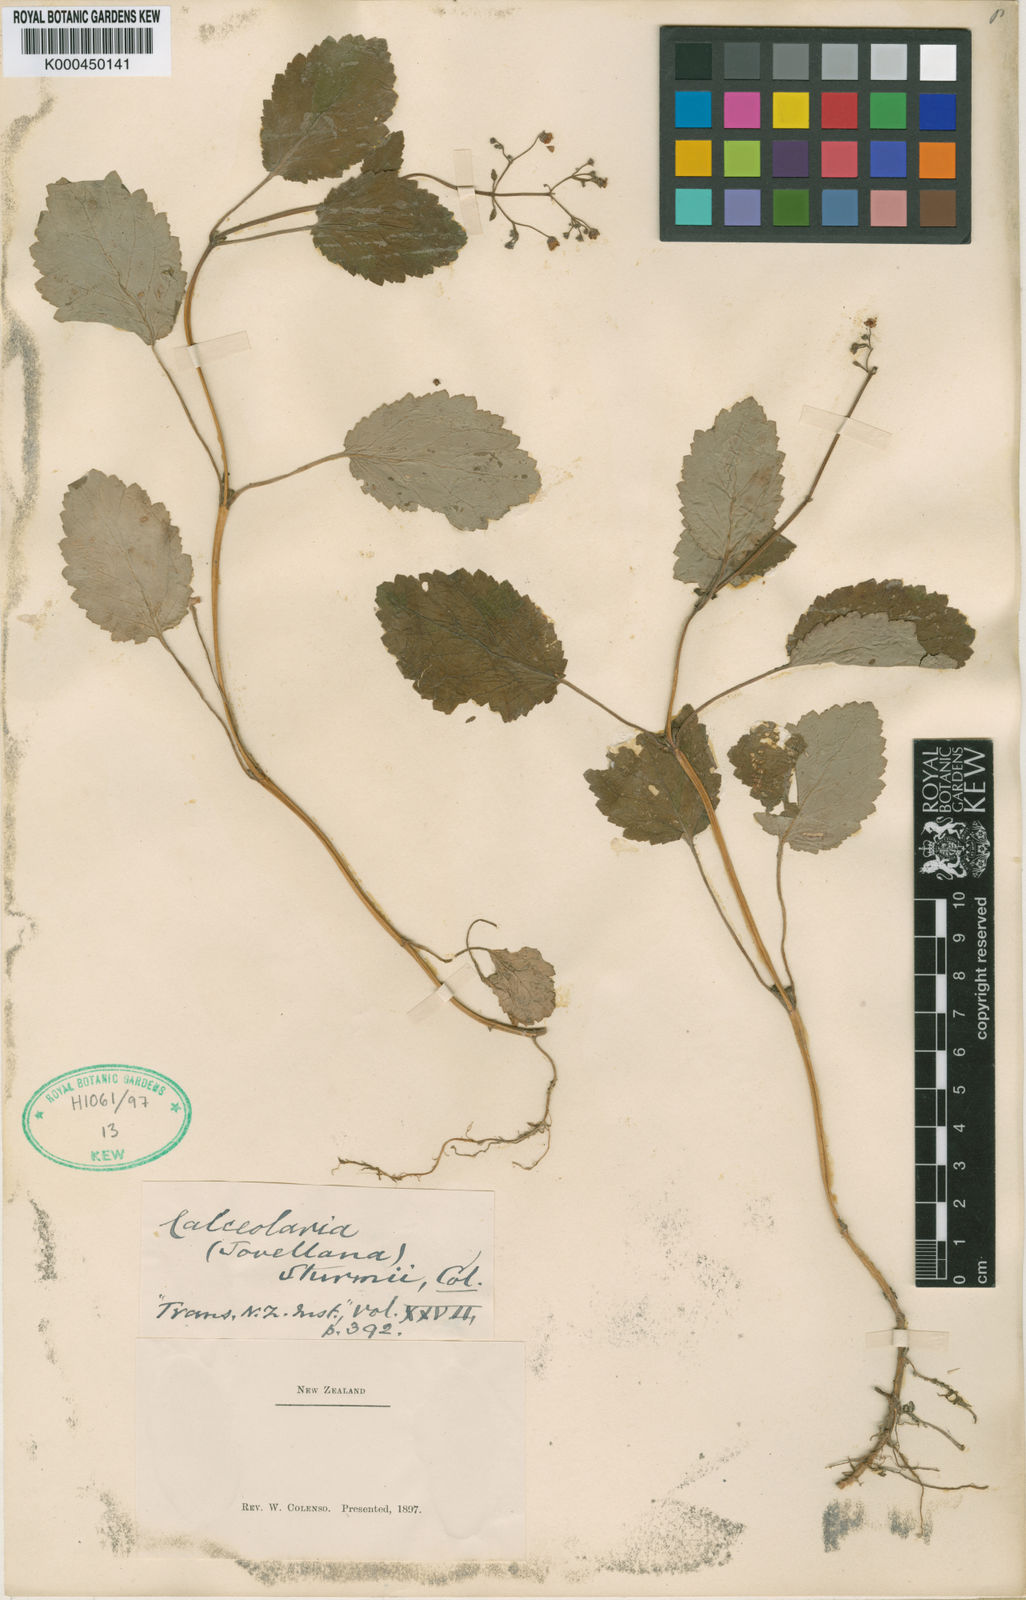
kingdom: Plantae
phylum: Tracheophyta
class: Magnoliopsida
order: Lamiales
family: Calceolariaceae
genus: Jovellana
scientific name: Jovellana sinclairii
